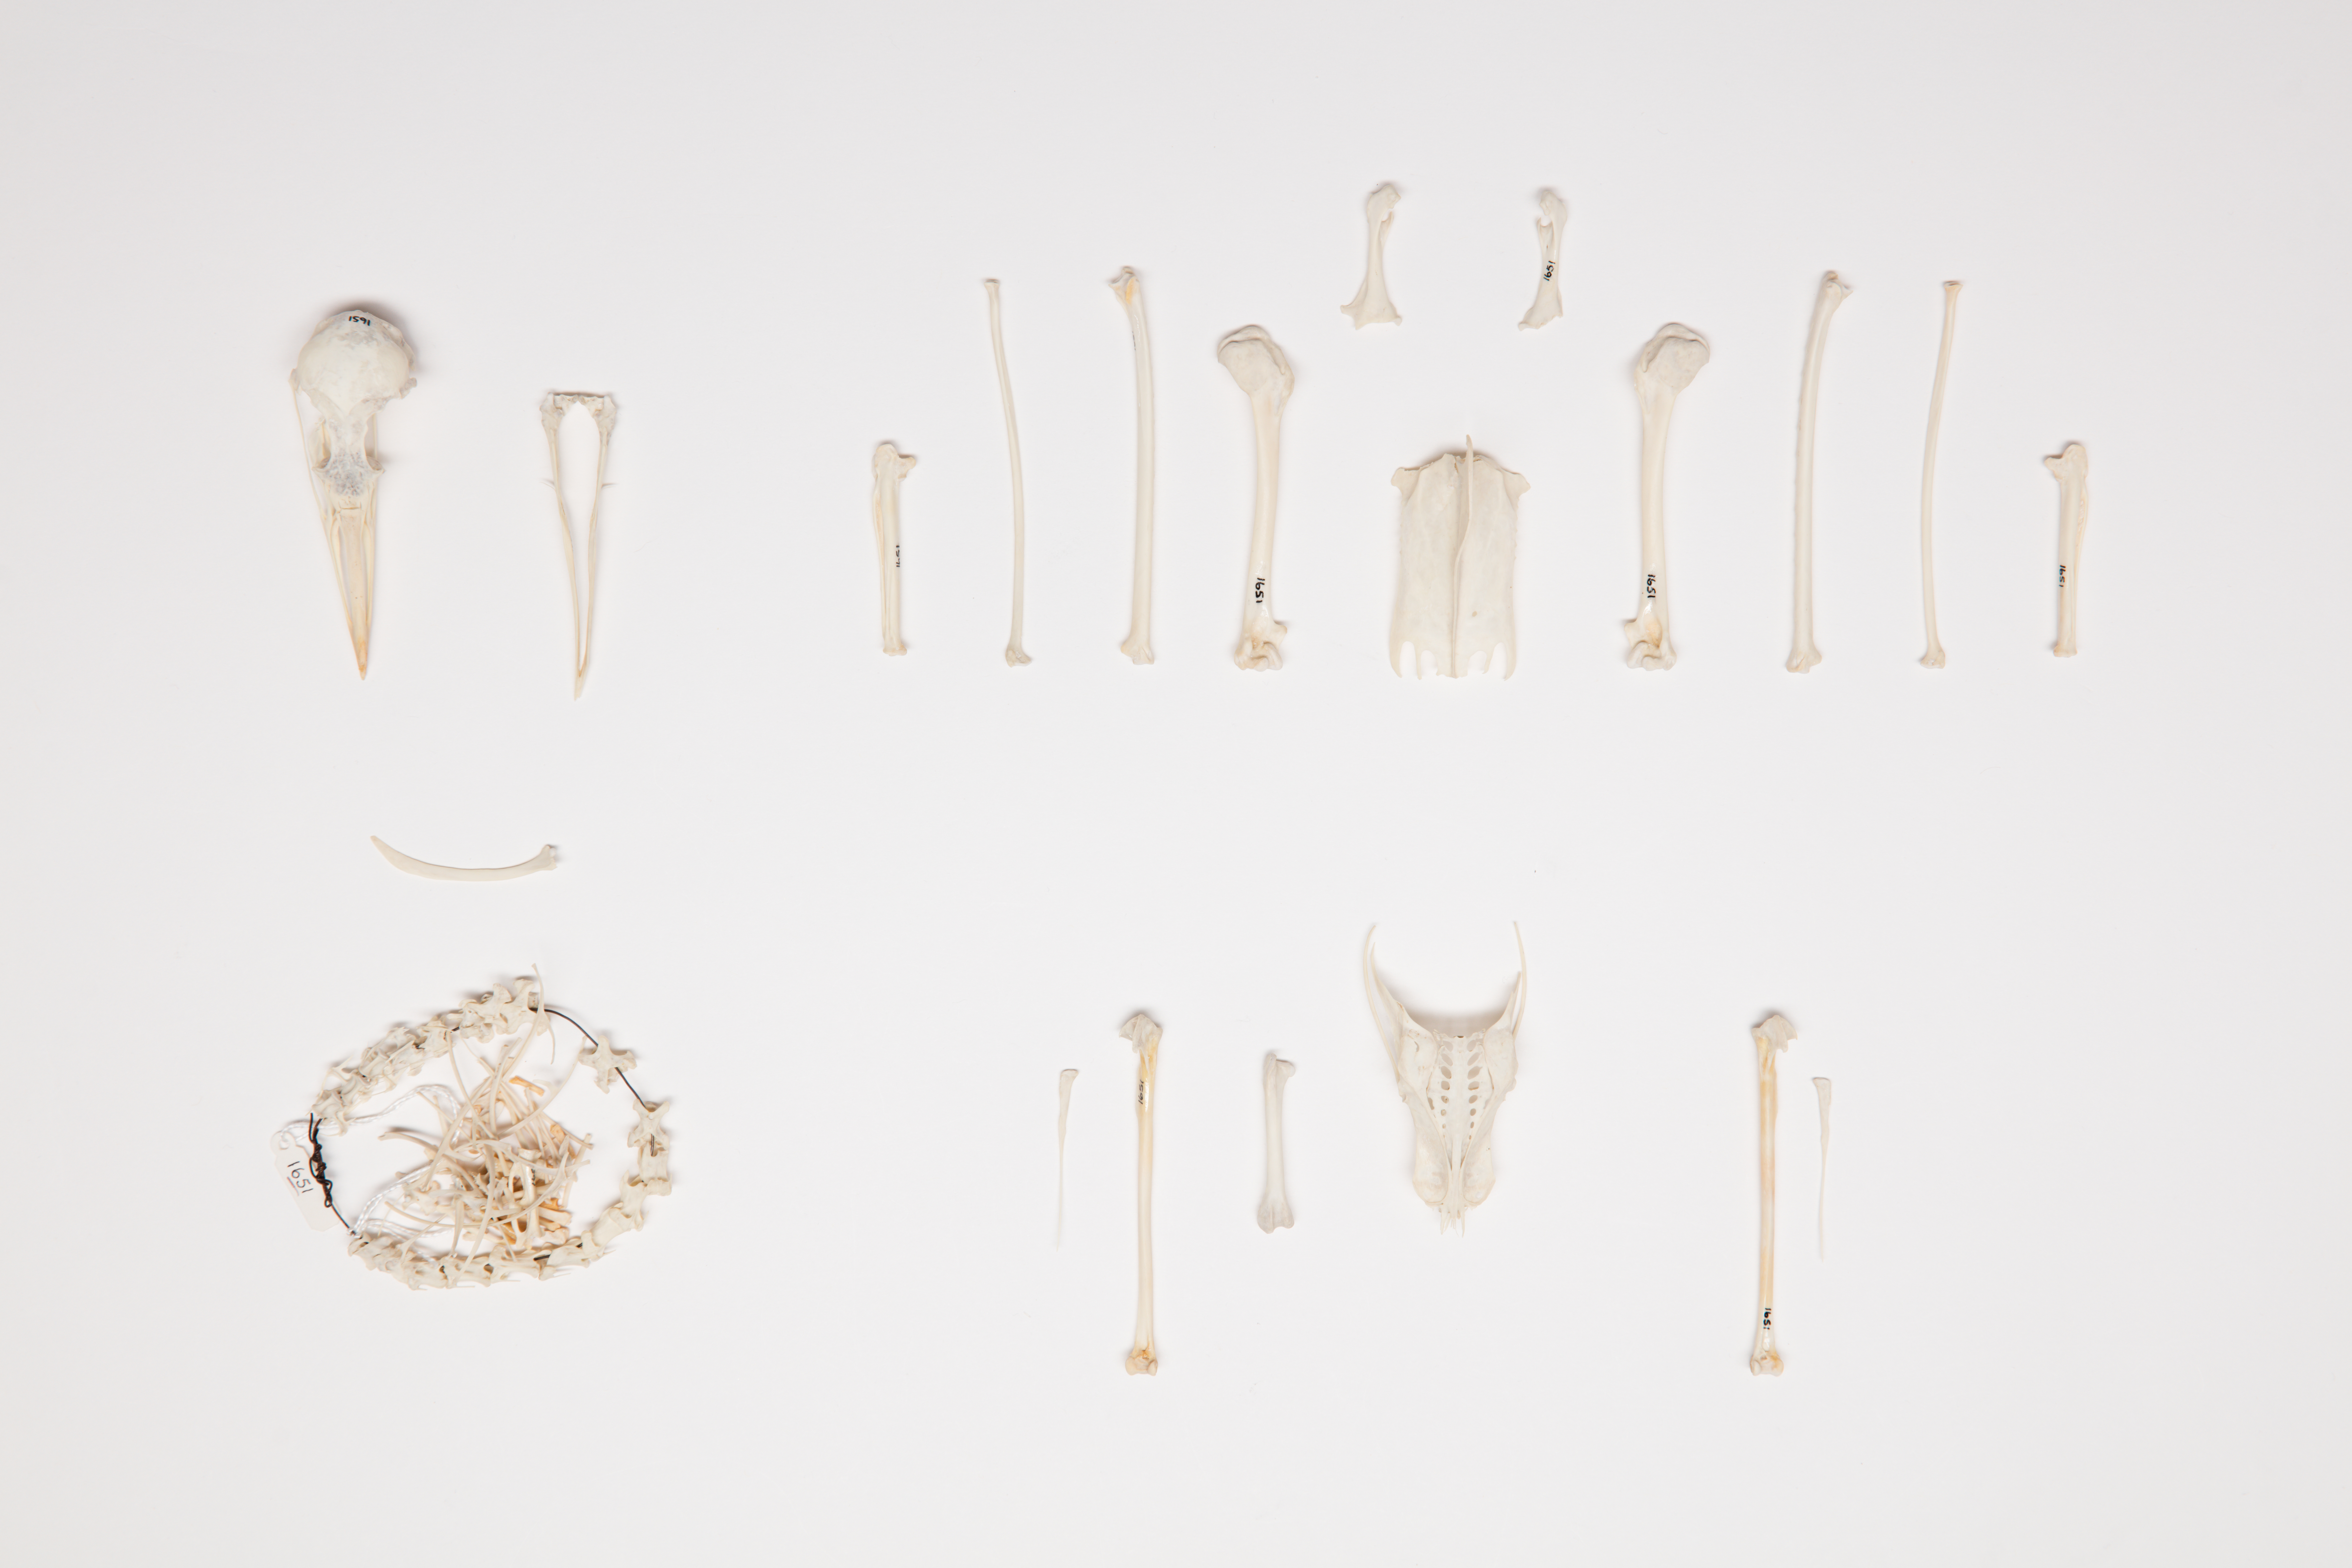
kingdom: Animalia
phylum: Chordata
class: Aves
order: Charadriiformes
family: Laridae
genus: Chroicocephalus
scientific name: Chroicocephalus novaehollandiae
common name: Silver gull
